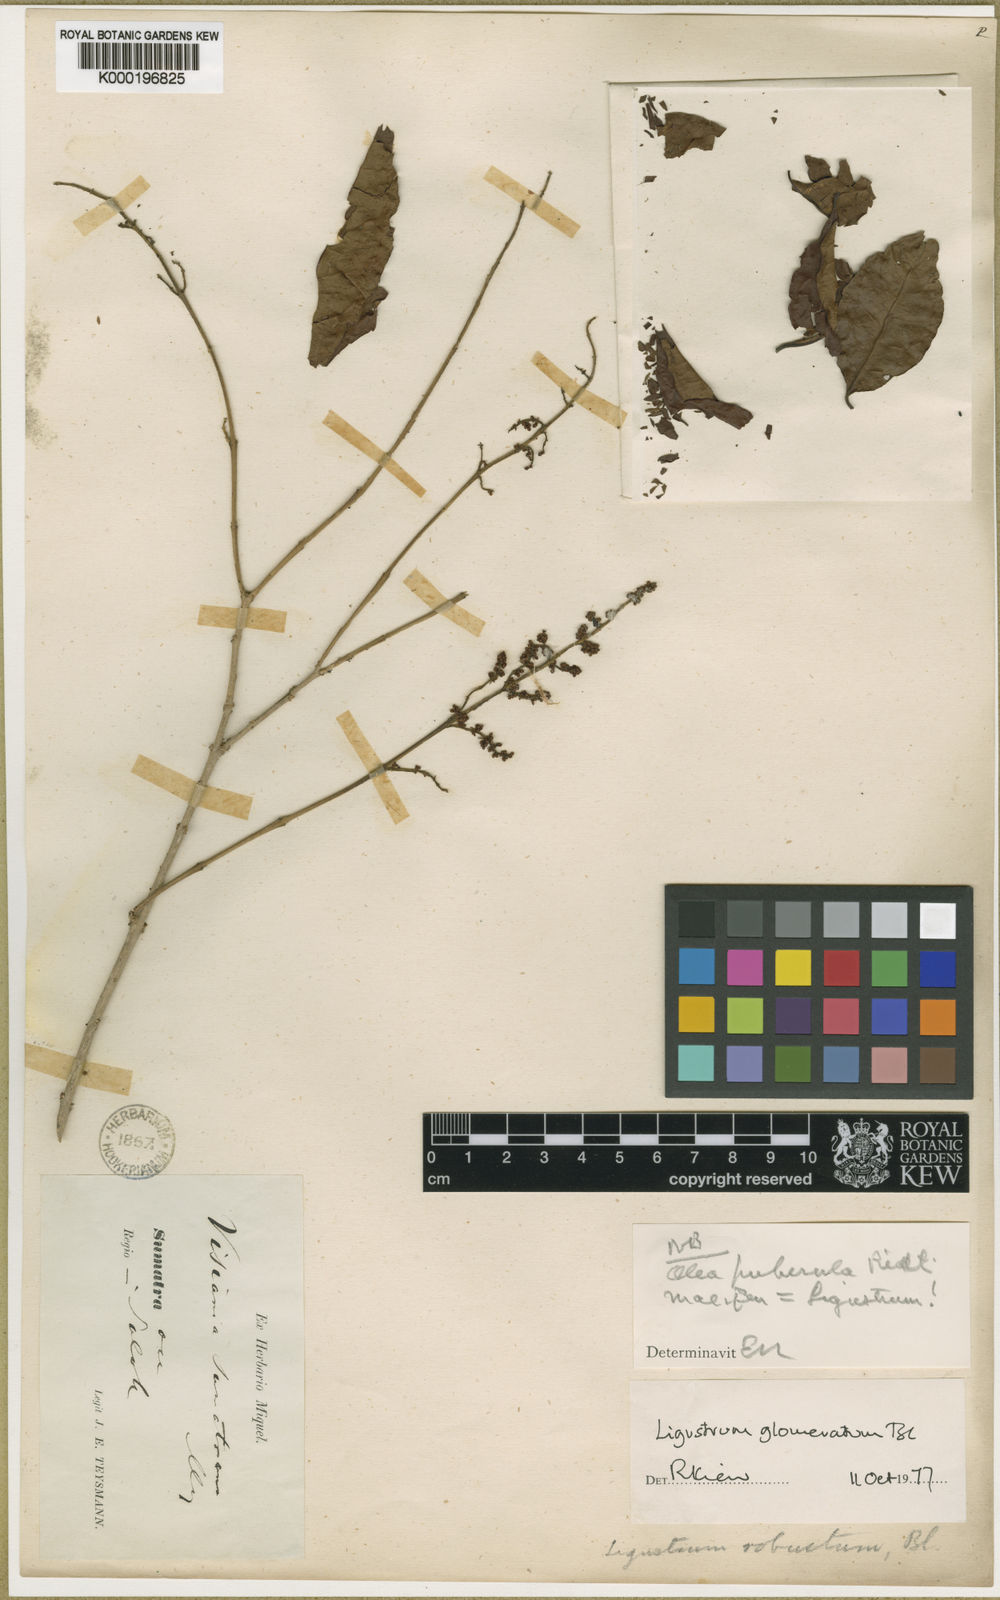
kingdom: Plantae
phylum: Tracheophyta
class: Magnoliopsida
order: Lamiales
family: Oleaceae
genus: Ligustrum
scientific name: Ligustrum glomeratum
